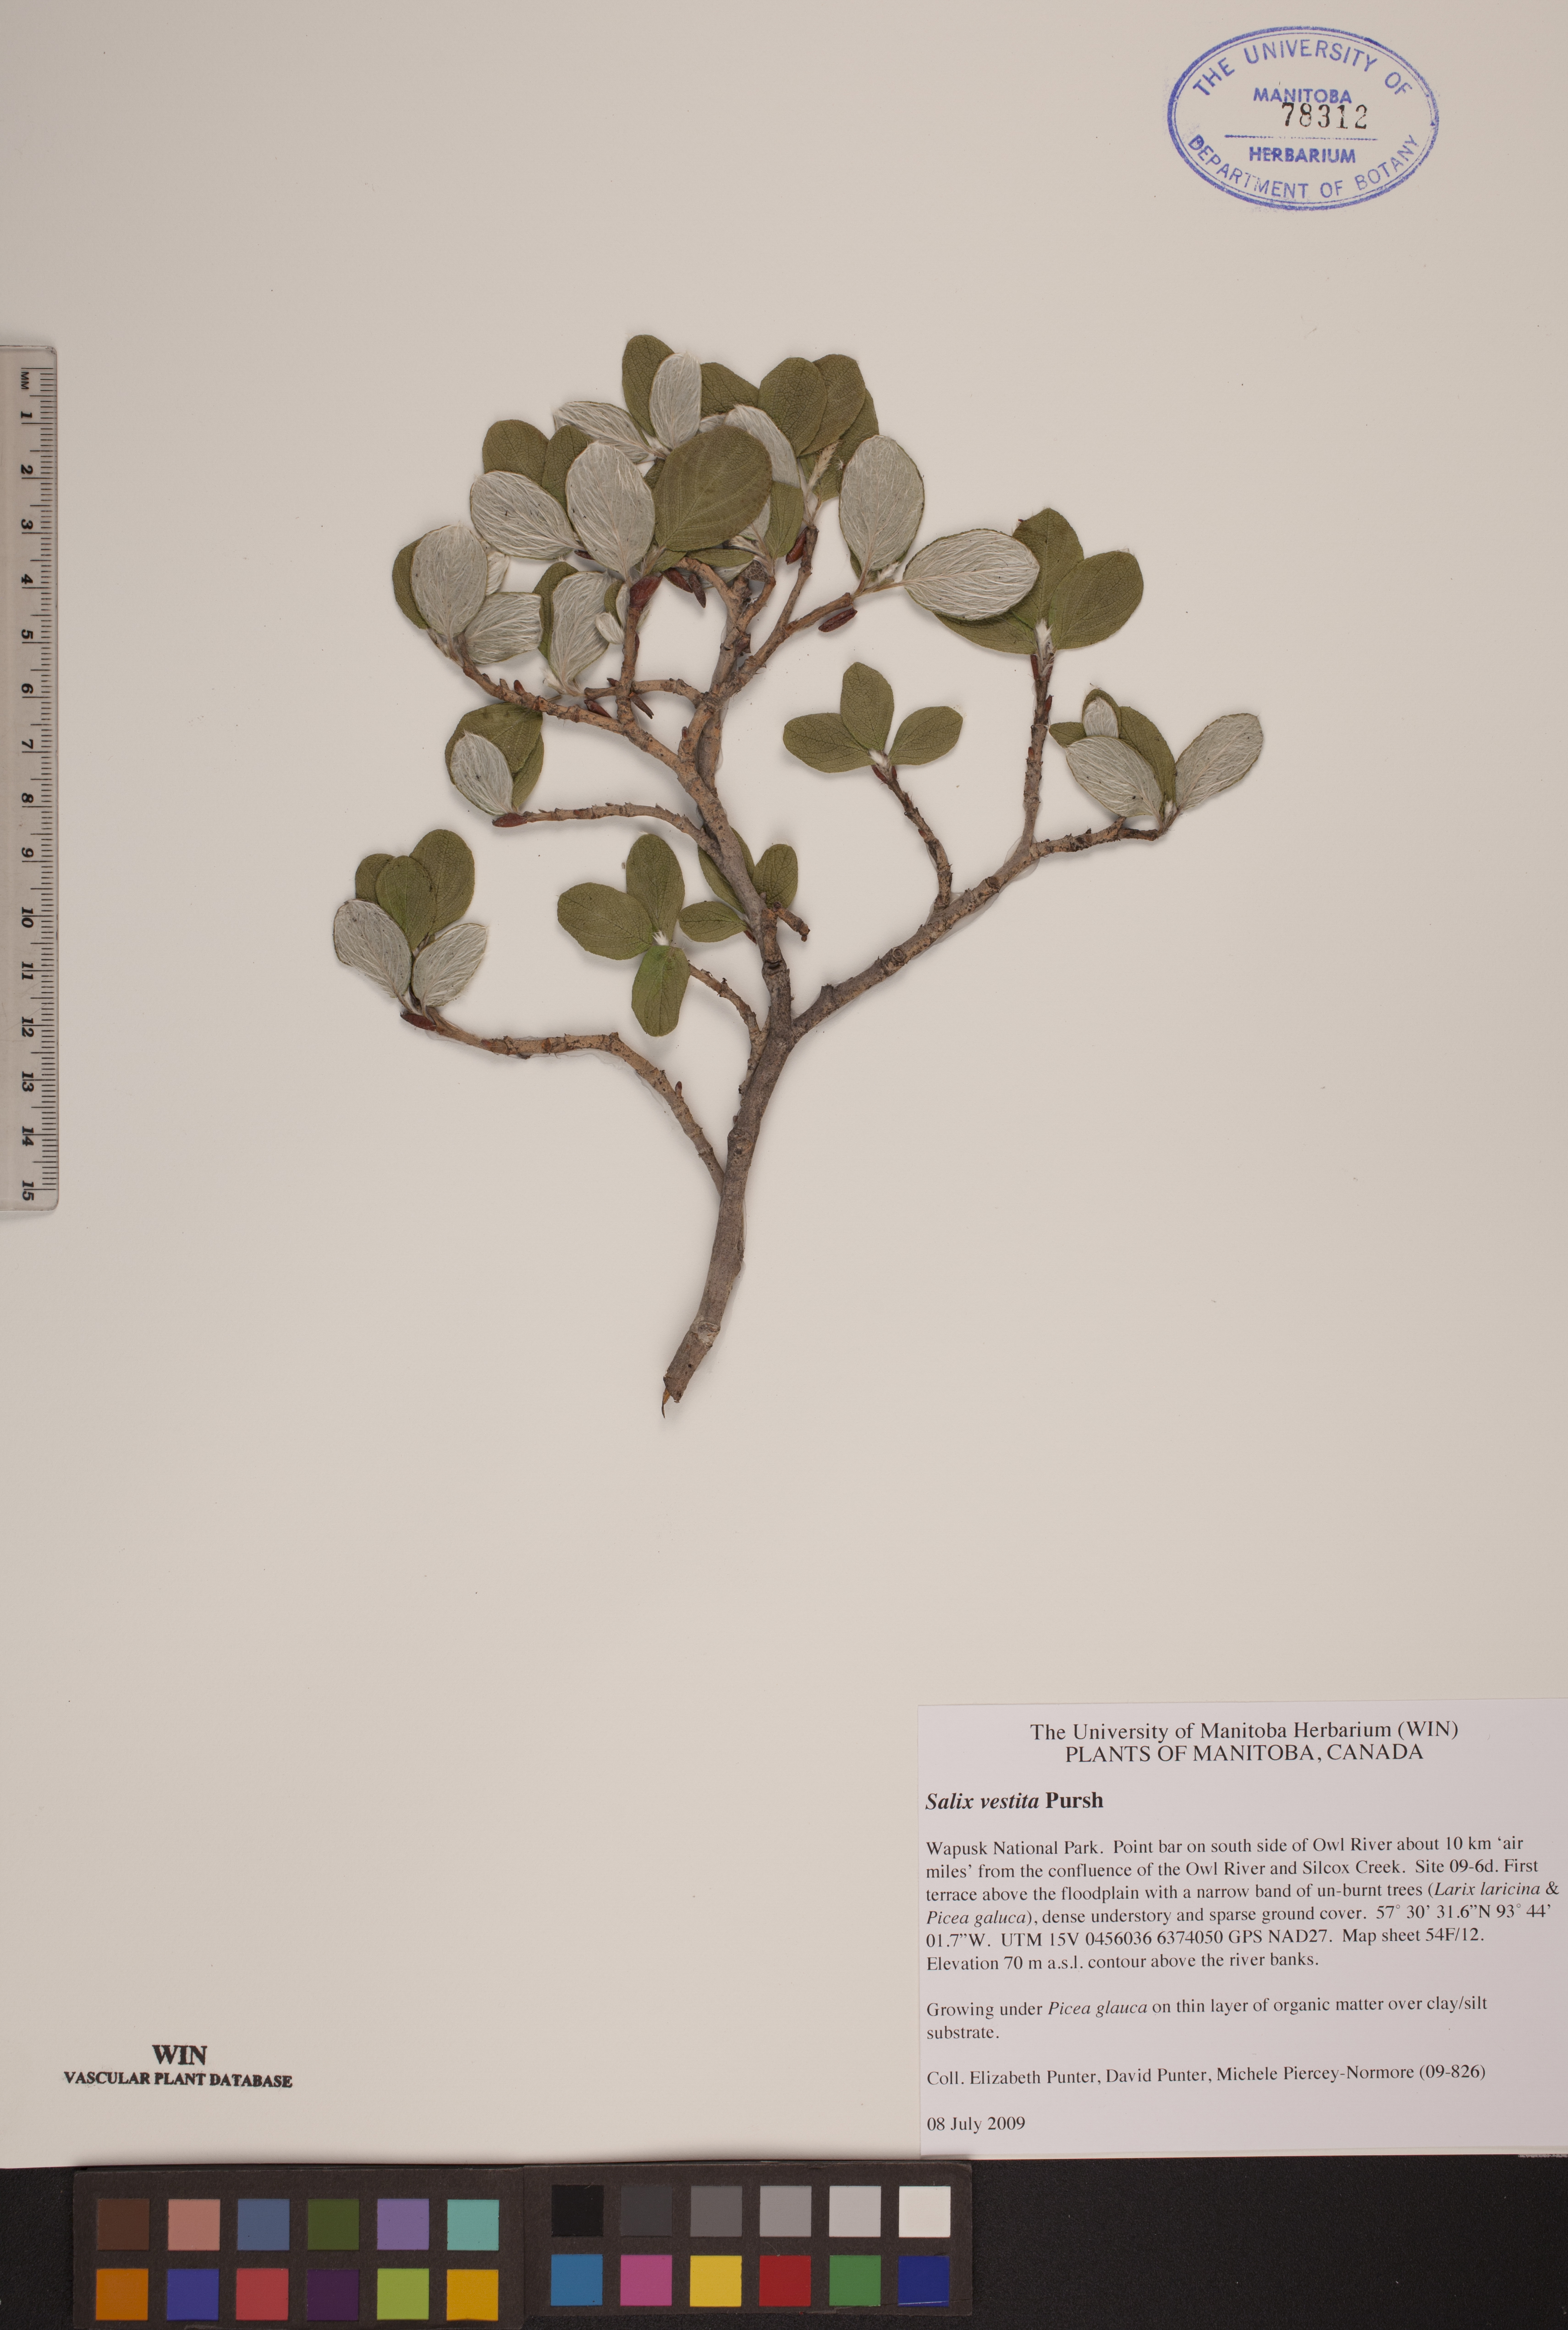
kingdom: Plantae
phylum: Tracheophyta
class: Magnoliopsida
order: Malpighiales
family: Salicaceae
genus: Salix
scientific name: Salix vestita
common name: Hairy willow
